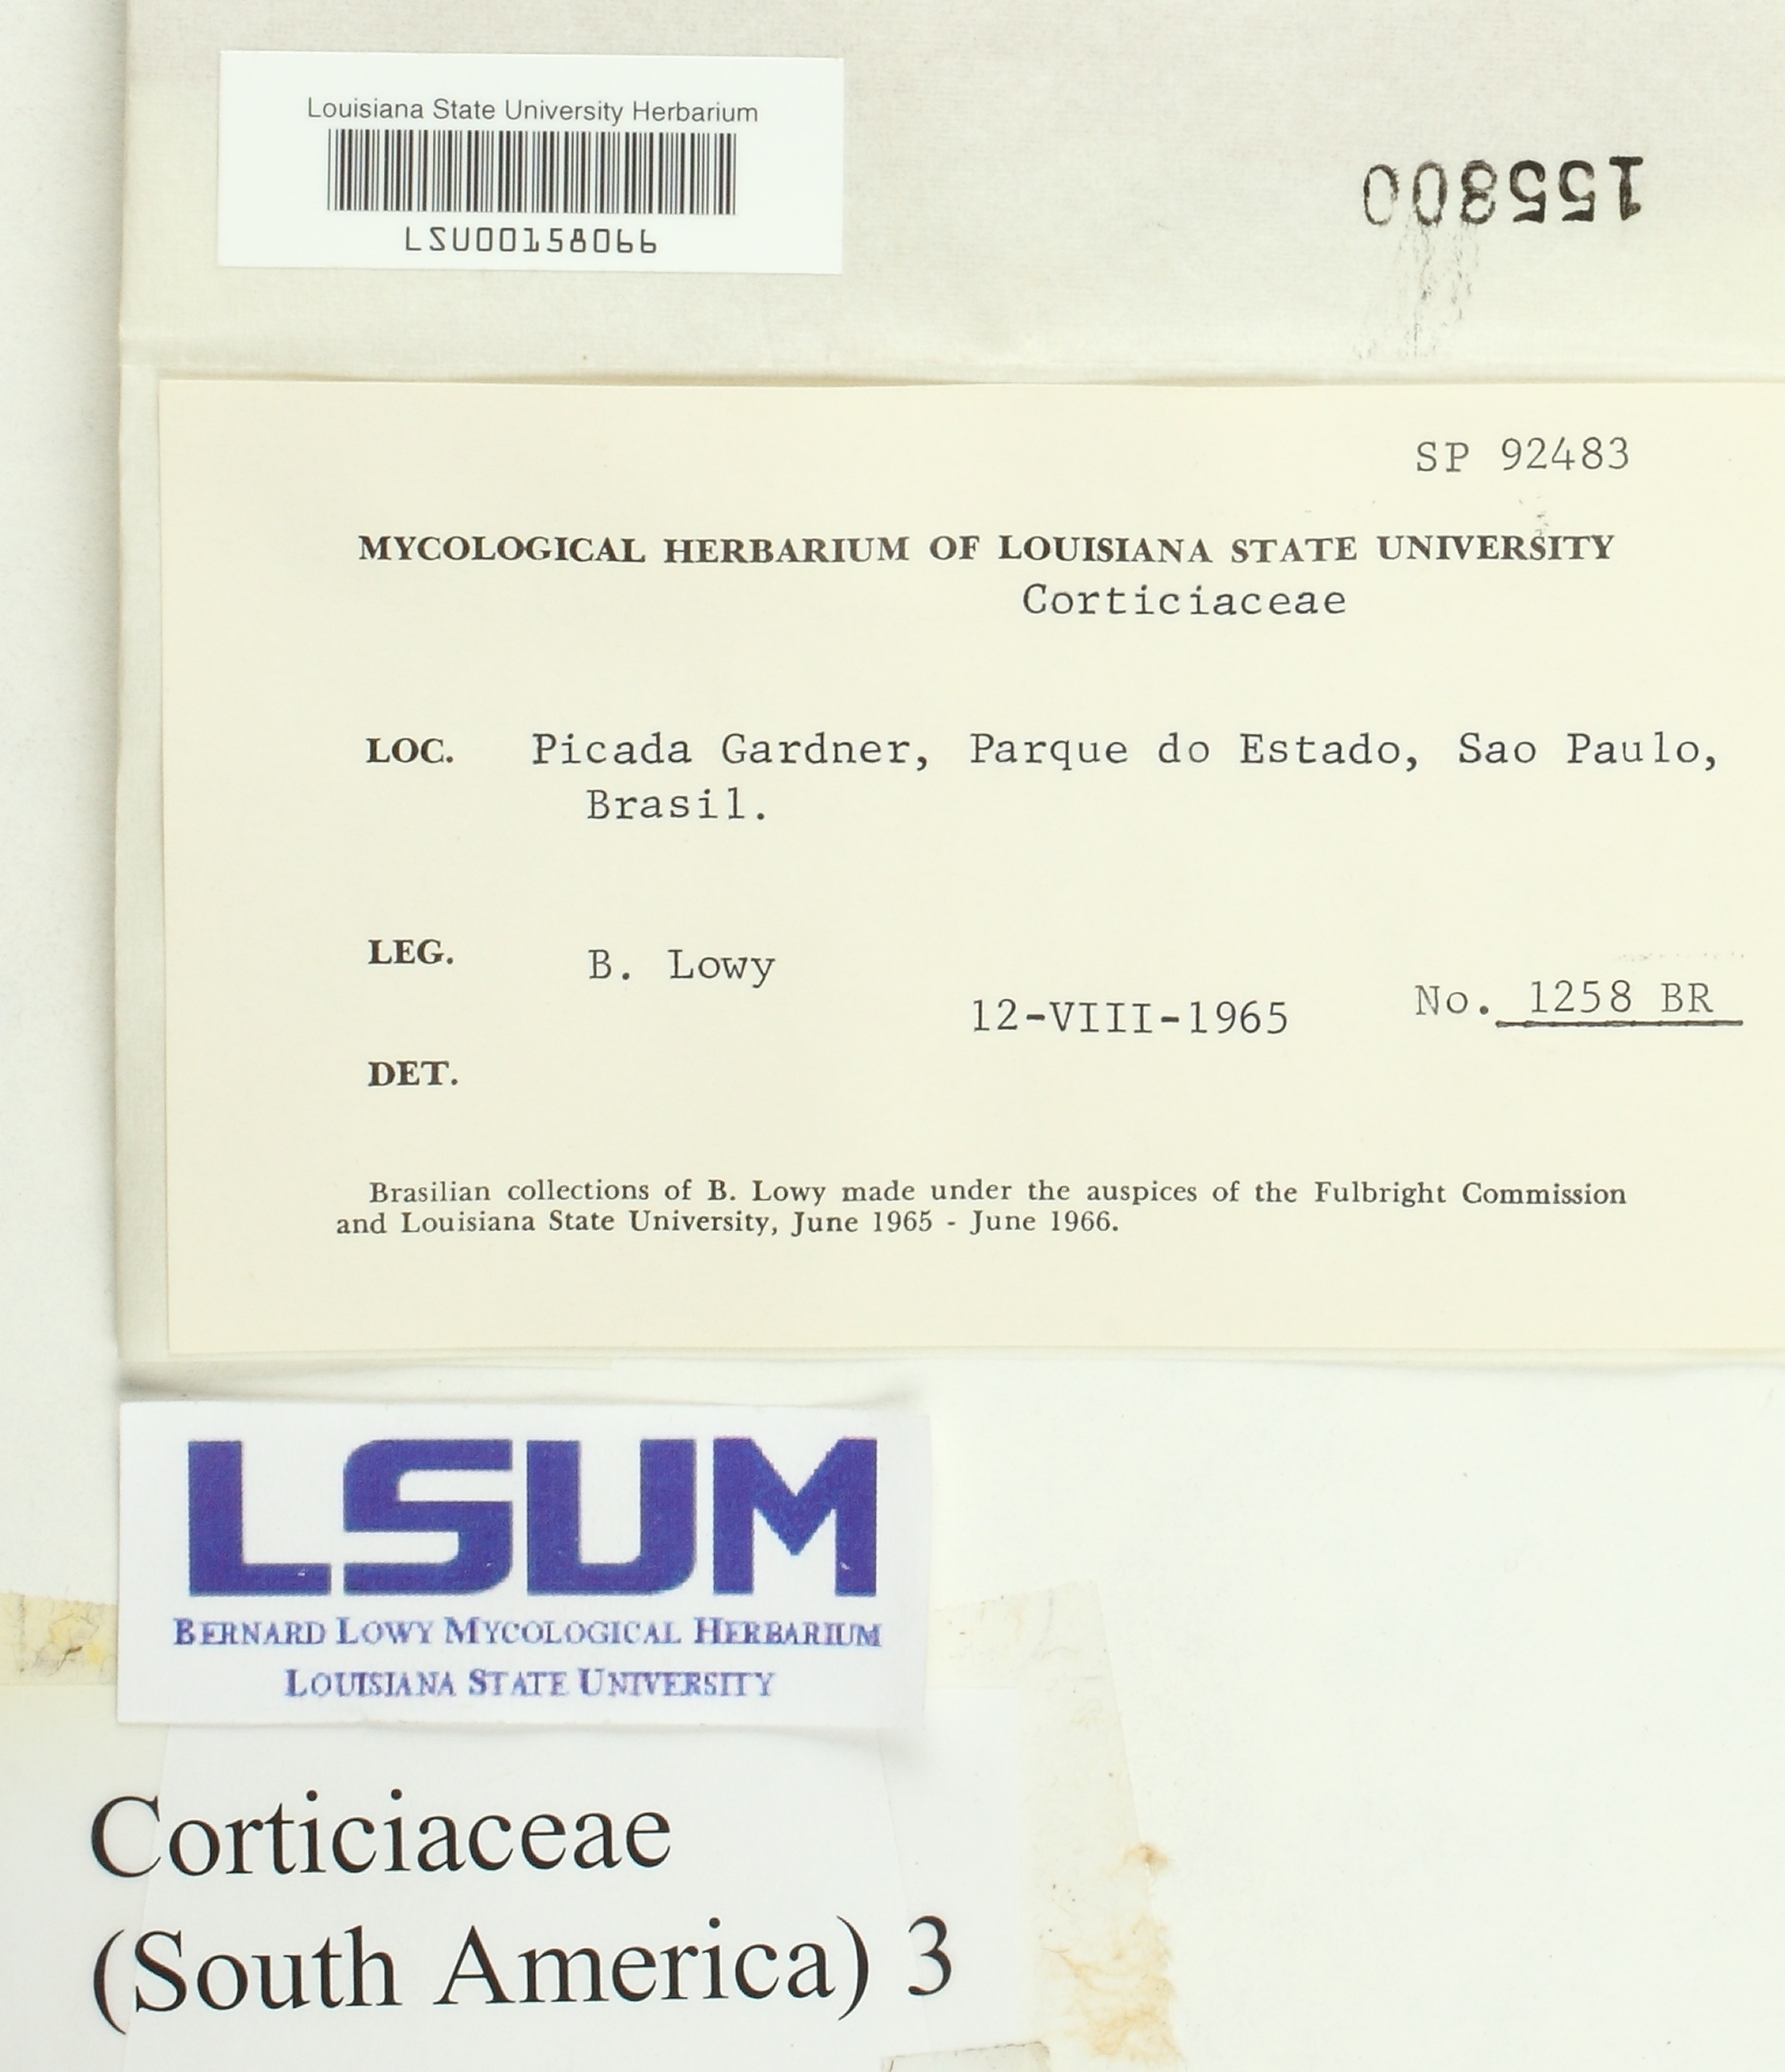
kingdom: Fungi
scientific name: Fungi
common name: Fungi
